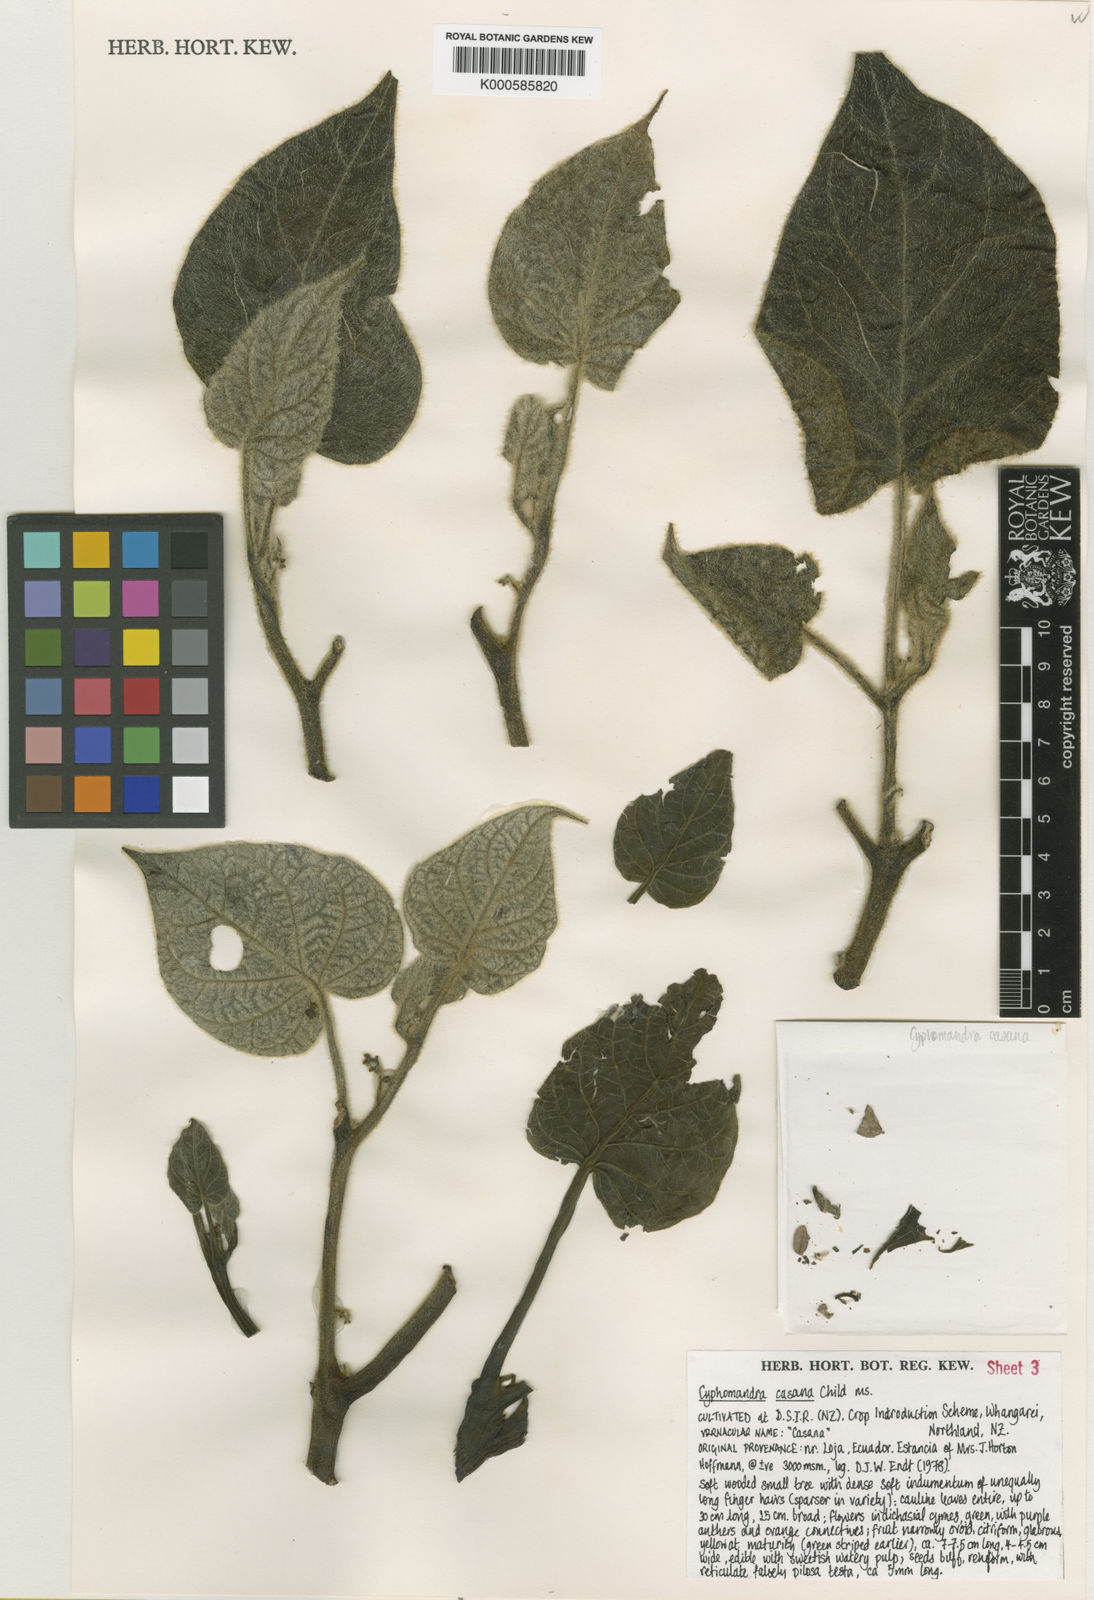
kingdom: Plantae
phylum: Tracheophyta
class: Magnoliopsida
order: Solanales
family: Solanaceae
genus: Solanum
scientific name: Solanum cajanumense
